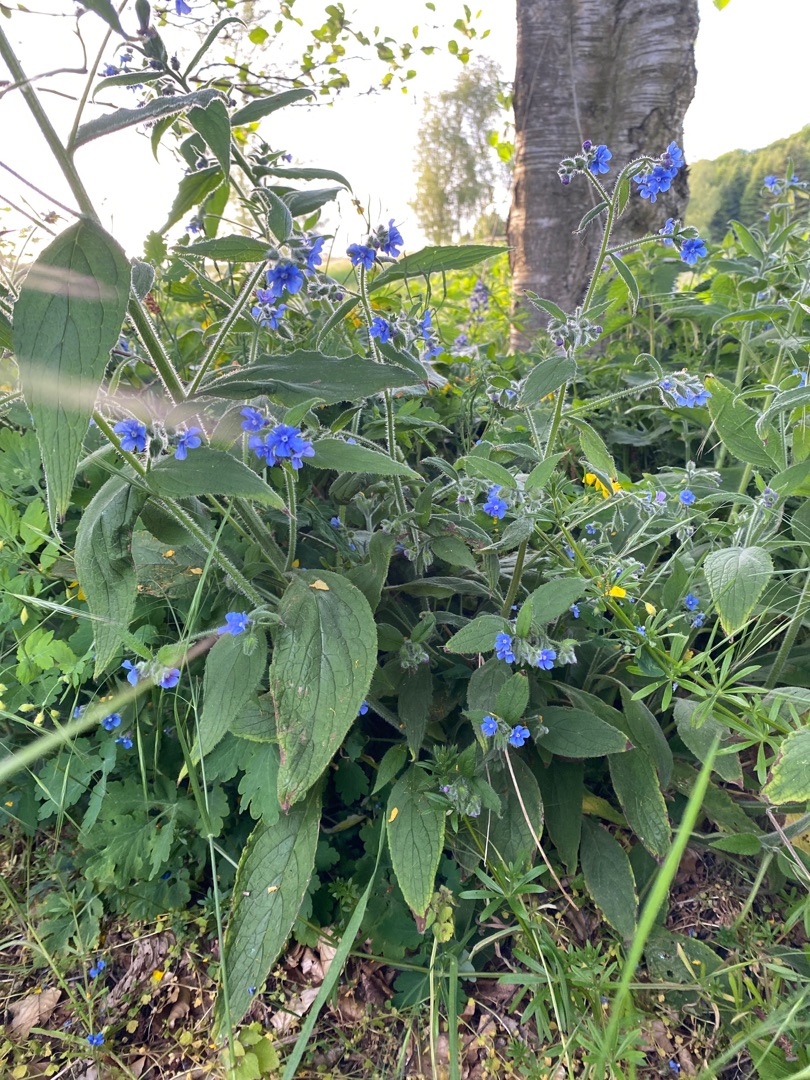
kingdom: Plantae
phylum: Tracheophyta
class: Magnoliopsida
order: Boraginales
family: Boraginaceae
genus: Pentaglottis
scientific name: Pentaglottis sempervirens
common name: Femtunge
